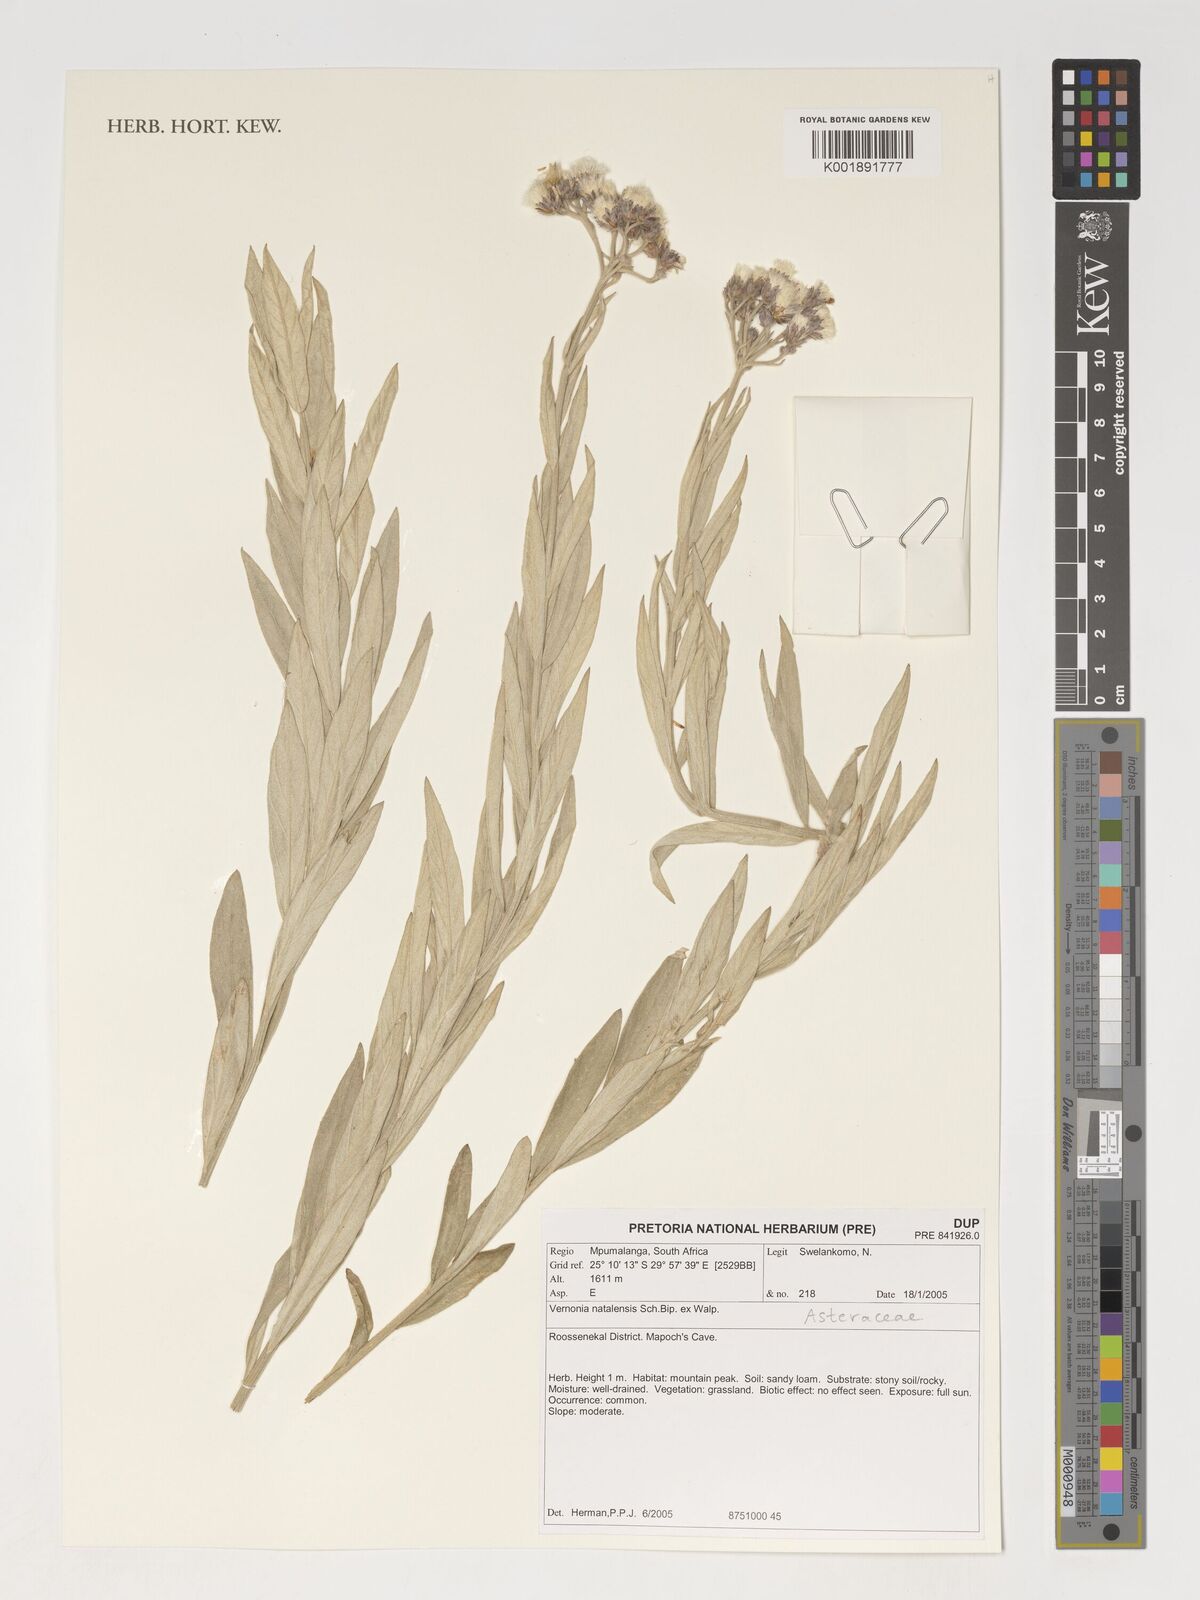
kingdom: Plantae
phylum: Tracheophyta
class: Magnoliopsida
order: Asterales
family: Asteraceae
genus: Hilliardiella
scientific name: Hilliardiella aristata
